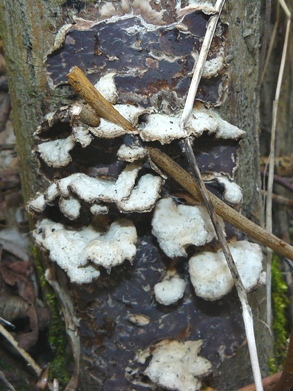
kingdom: Fungi
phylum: Basidiomycota
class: Agaricomycetes
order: Agaricales
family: Cyphellaceae
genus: Chondrostereum
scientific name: Chondrostereum purpureum
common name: purpurlædersvamp
